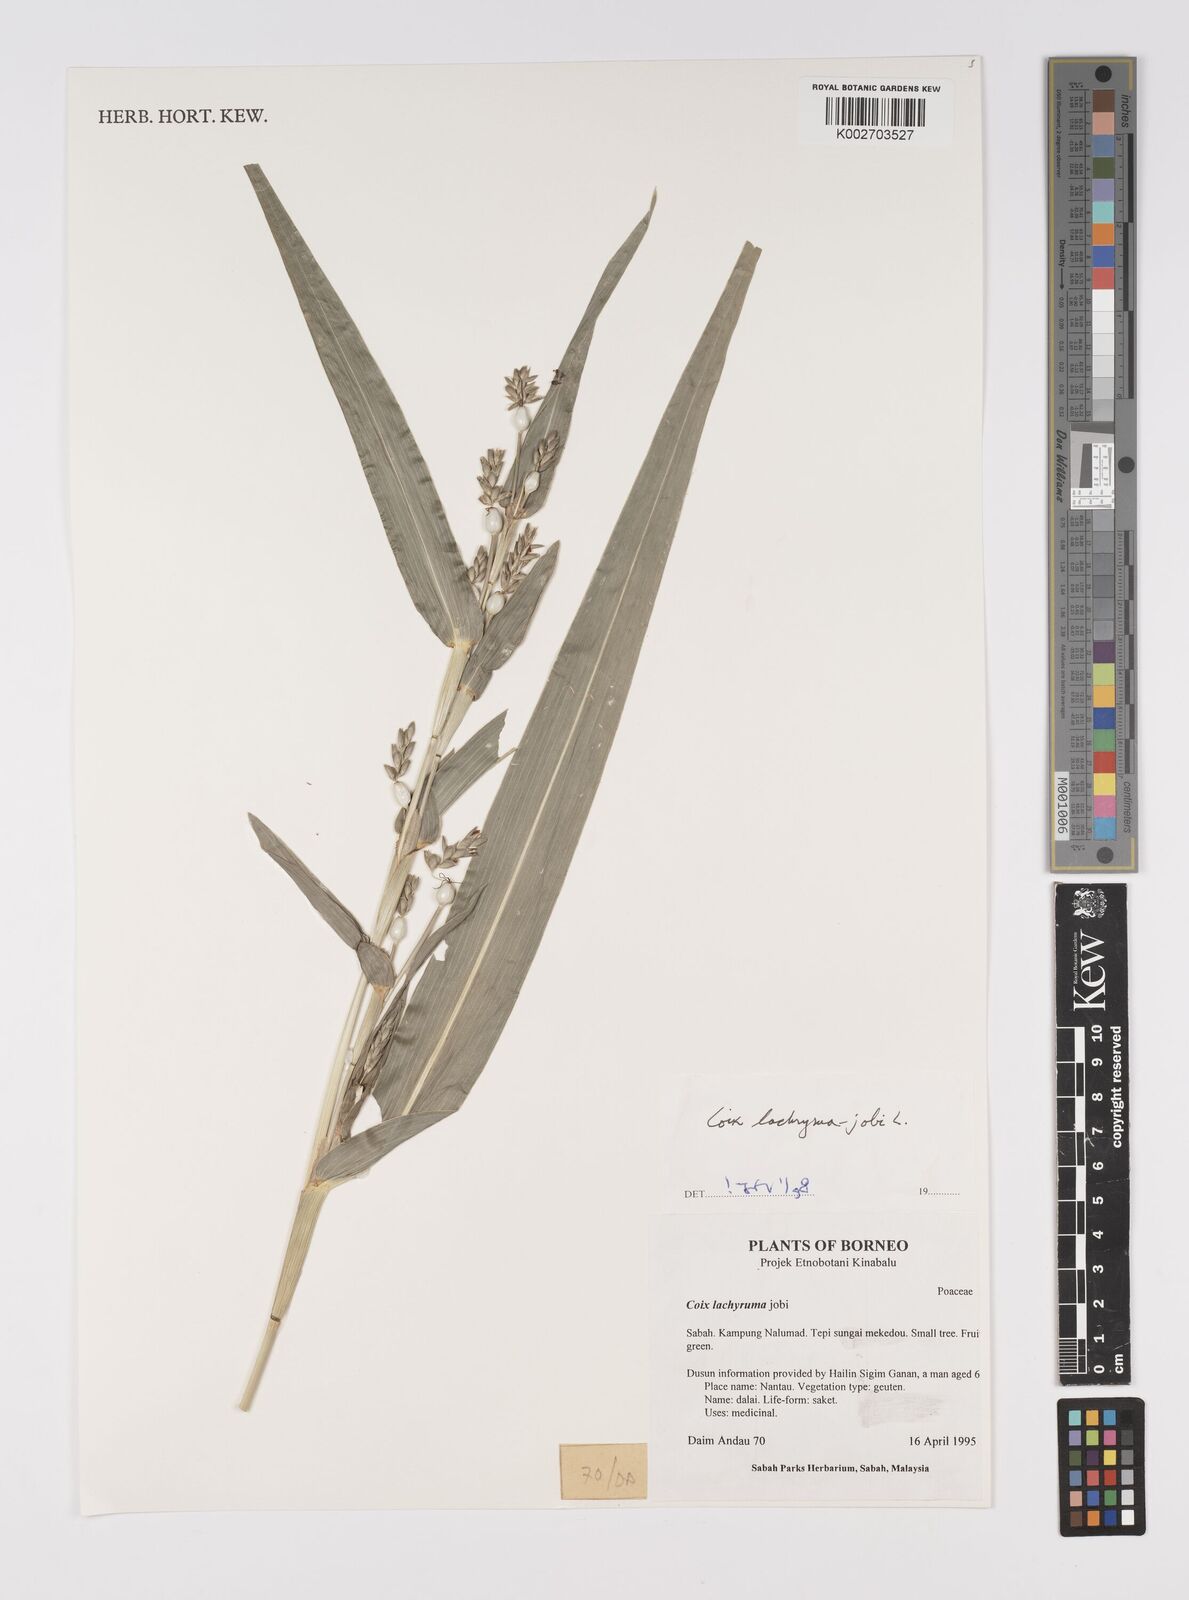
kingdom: Plantae
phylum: Tracheophyta
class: Liliopsida
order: Poales
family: Poaceae
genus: Coix
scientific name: Coix lacryma-jobi
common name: Job's tears
